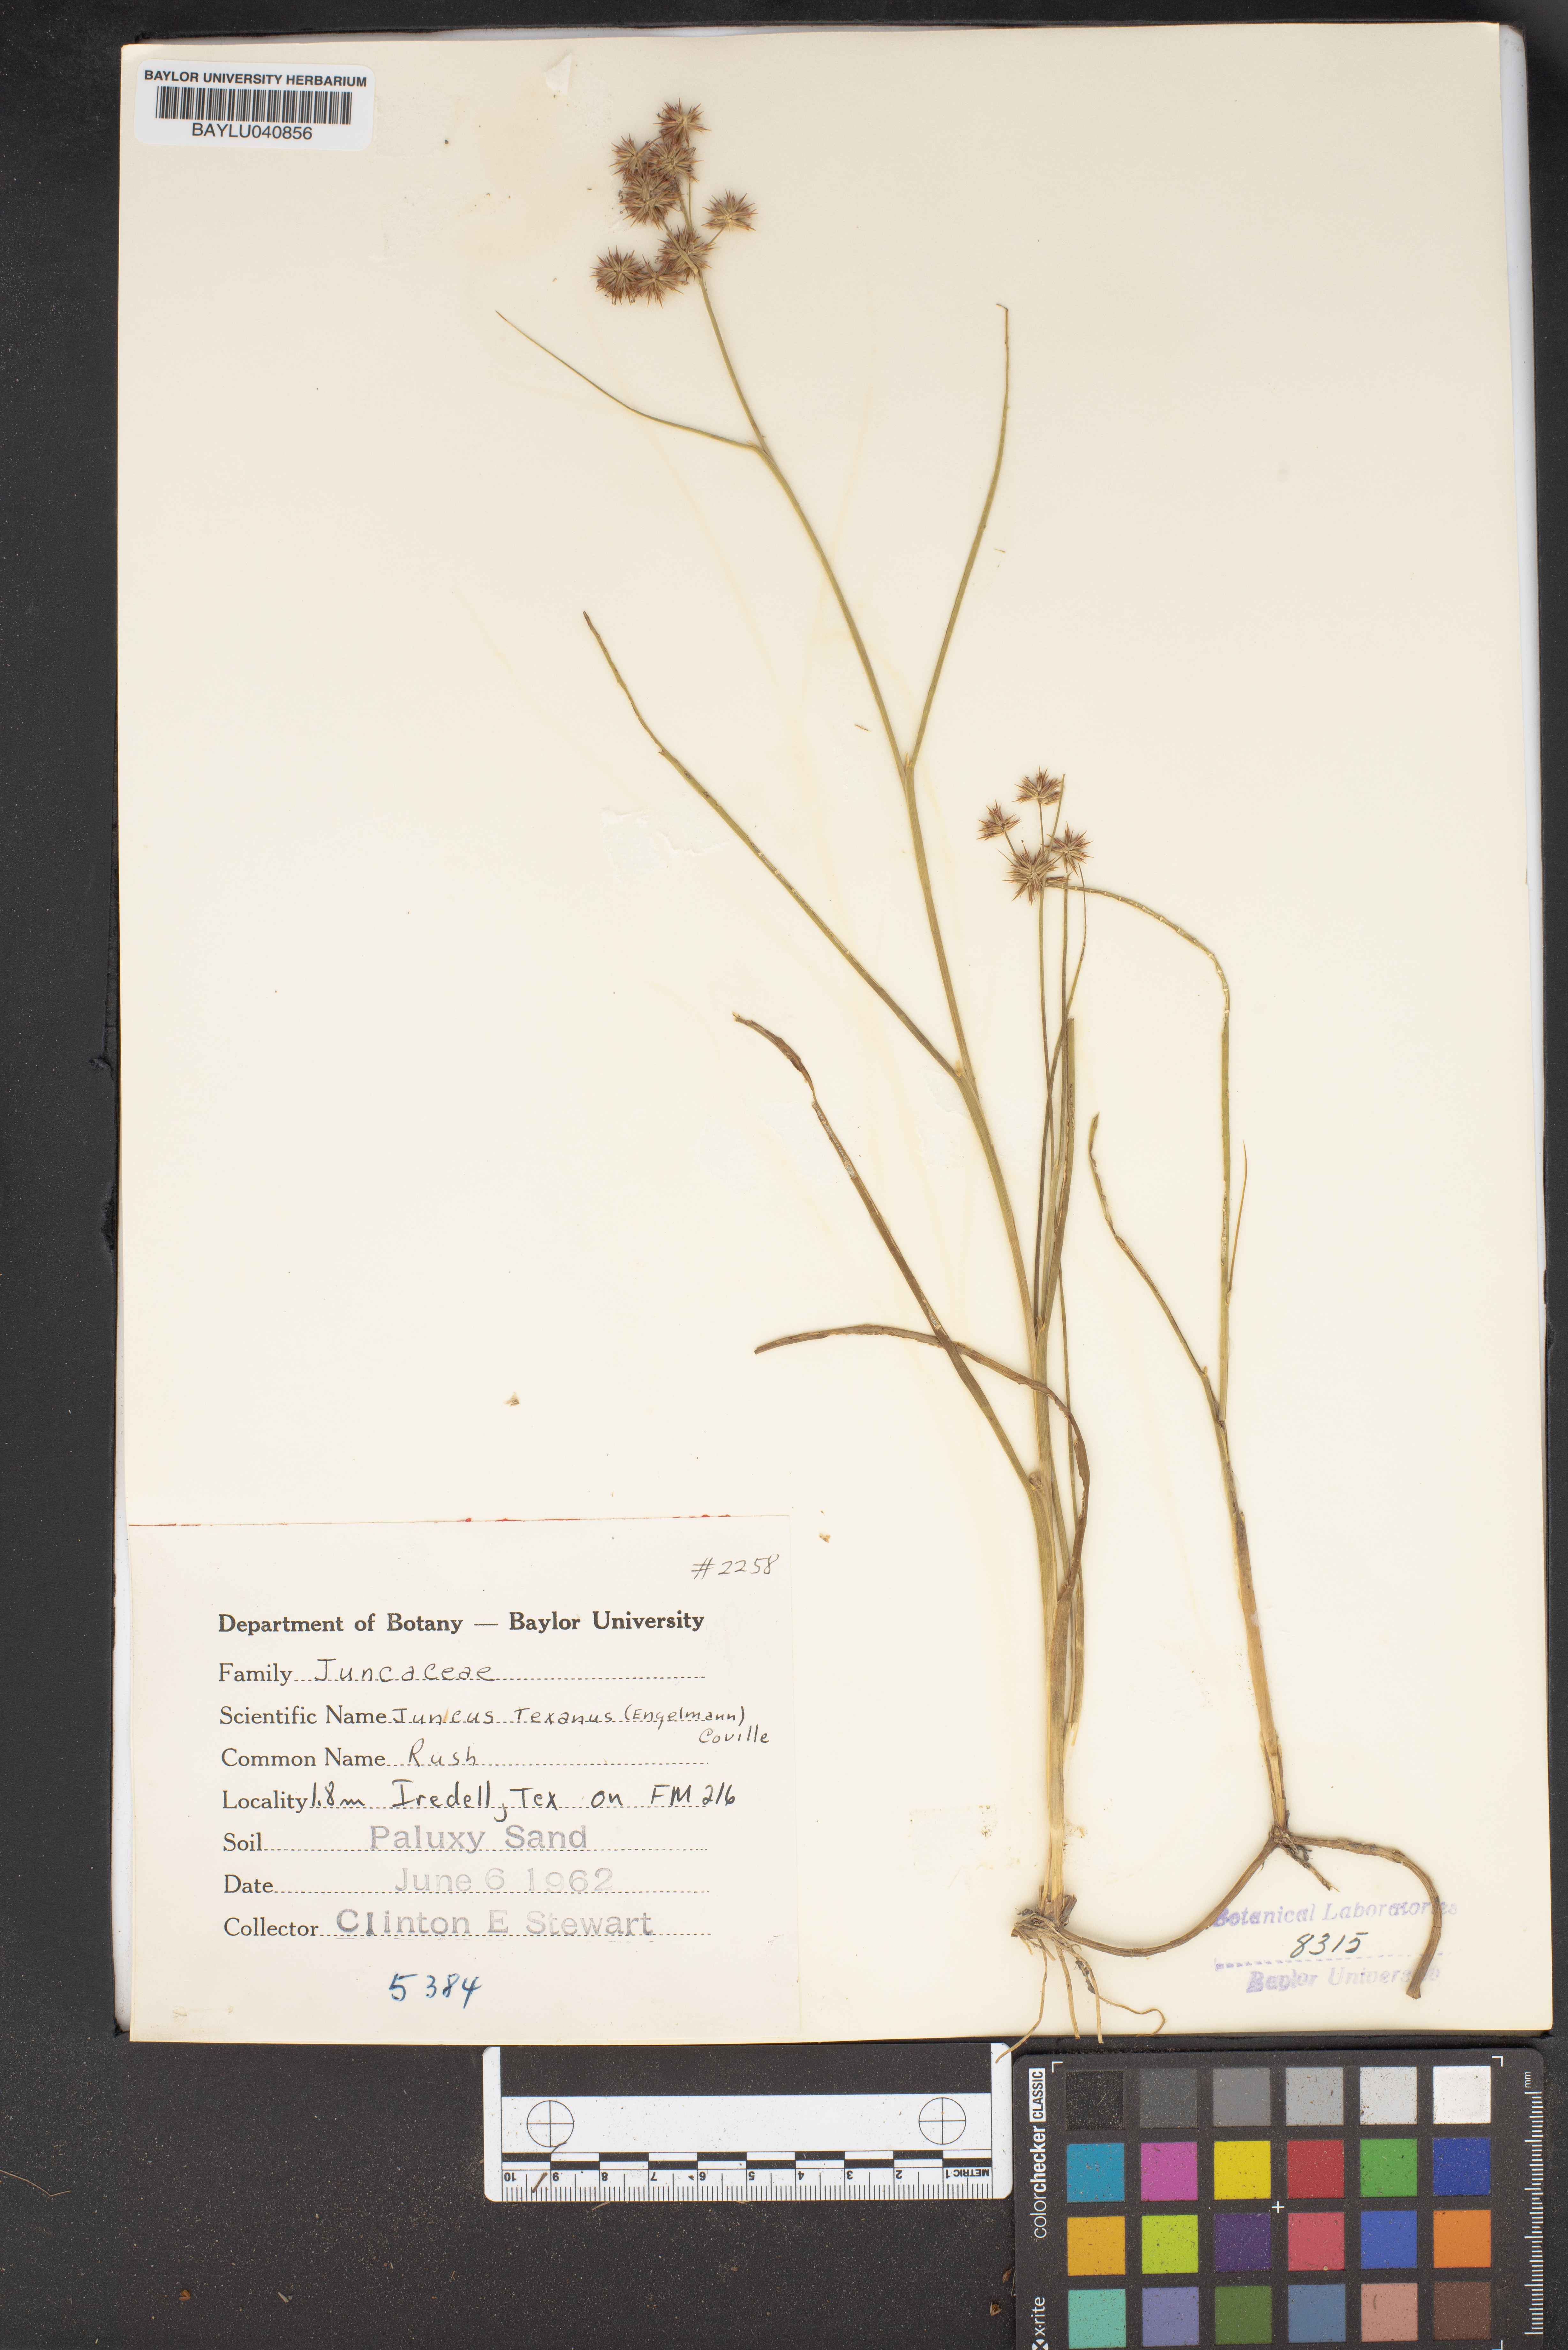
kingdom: Plantae
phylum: Tracheophyta
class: Liliopsida
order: Poales
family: Juncaceae
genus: Juncus
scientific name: Juncus texanus
